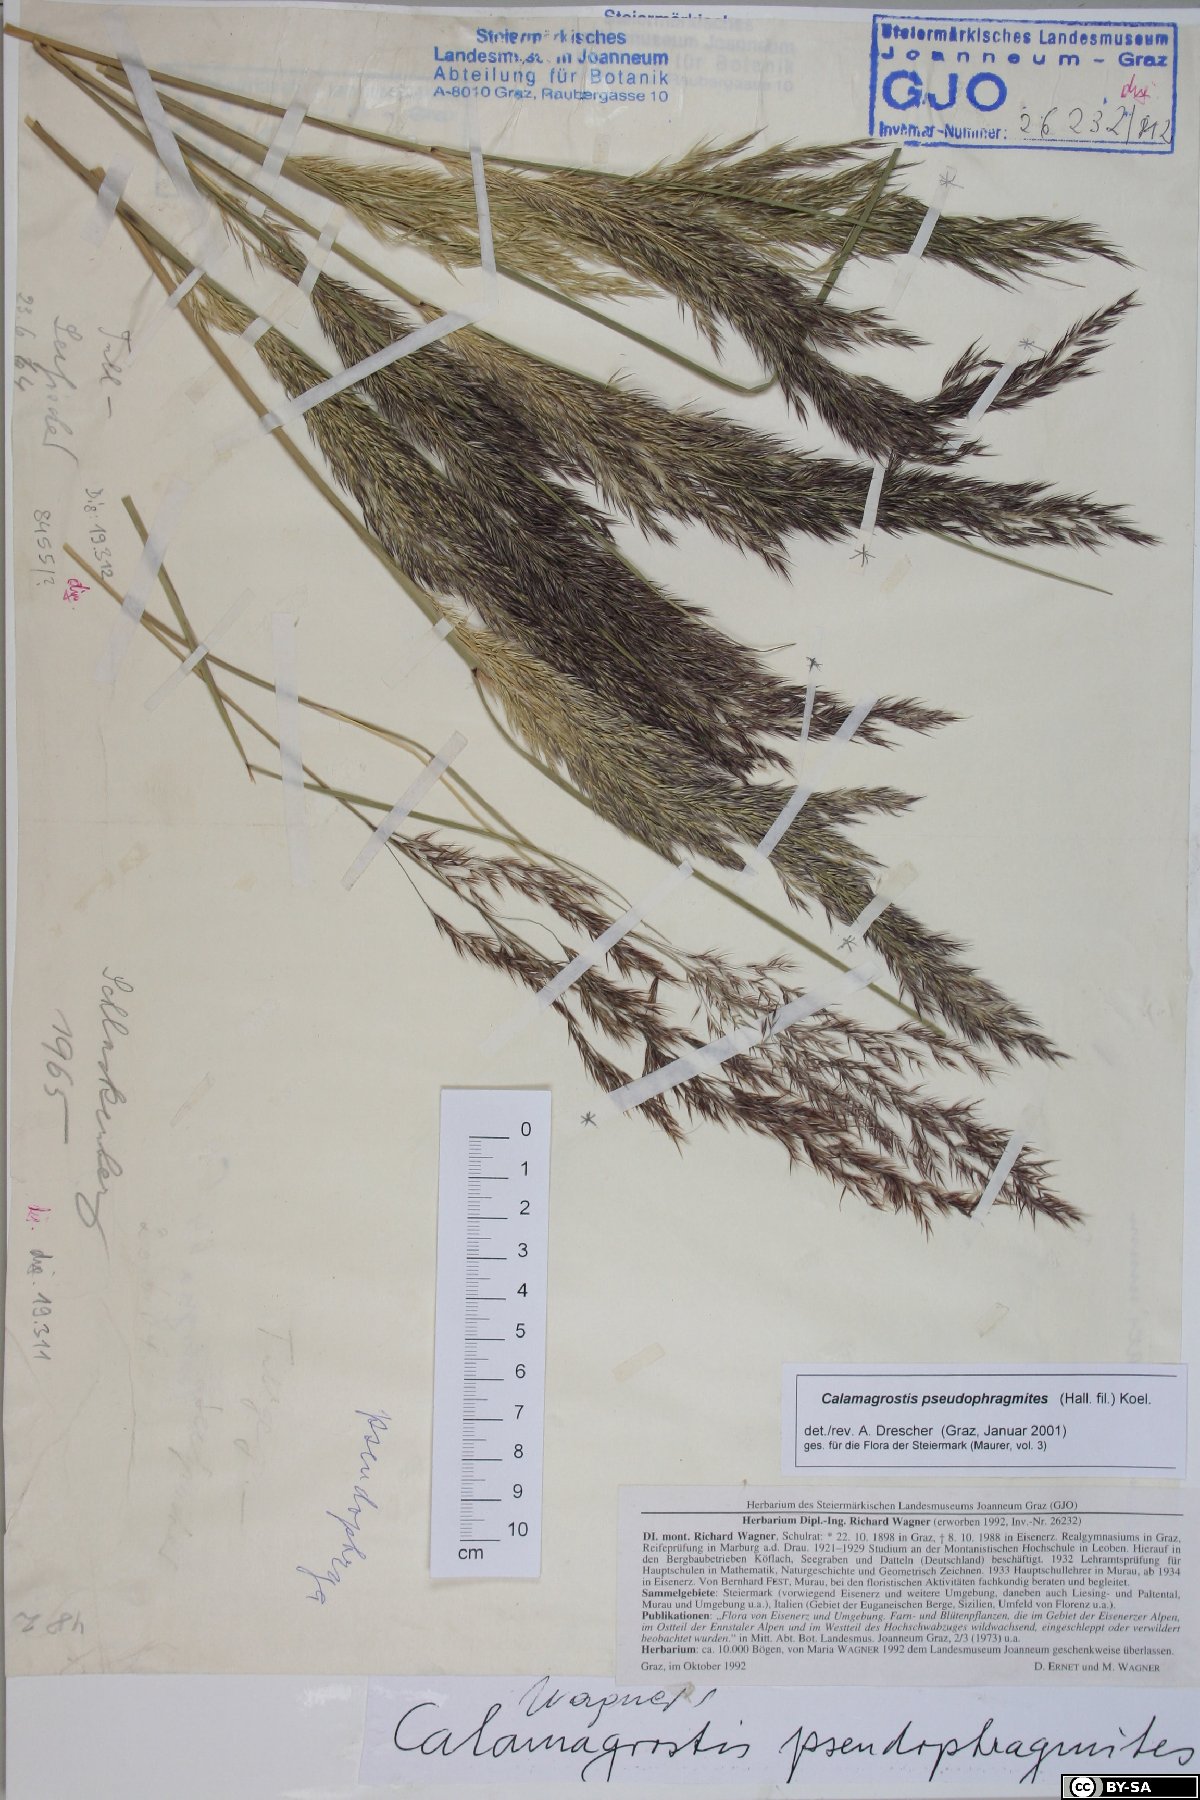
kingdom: Plantae
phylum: Tracheophyta
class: Liliopsida
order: Poales
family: Poaceae
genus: Calamagrostis
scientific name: Calamagrostis pseudophragmites
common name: Coastal small-reed
